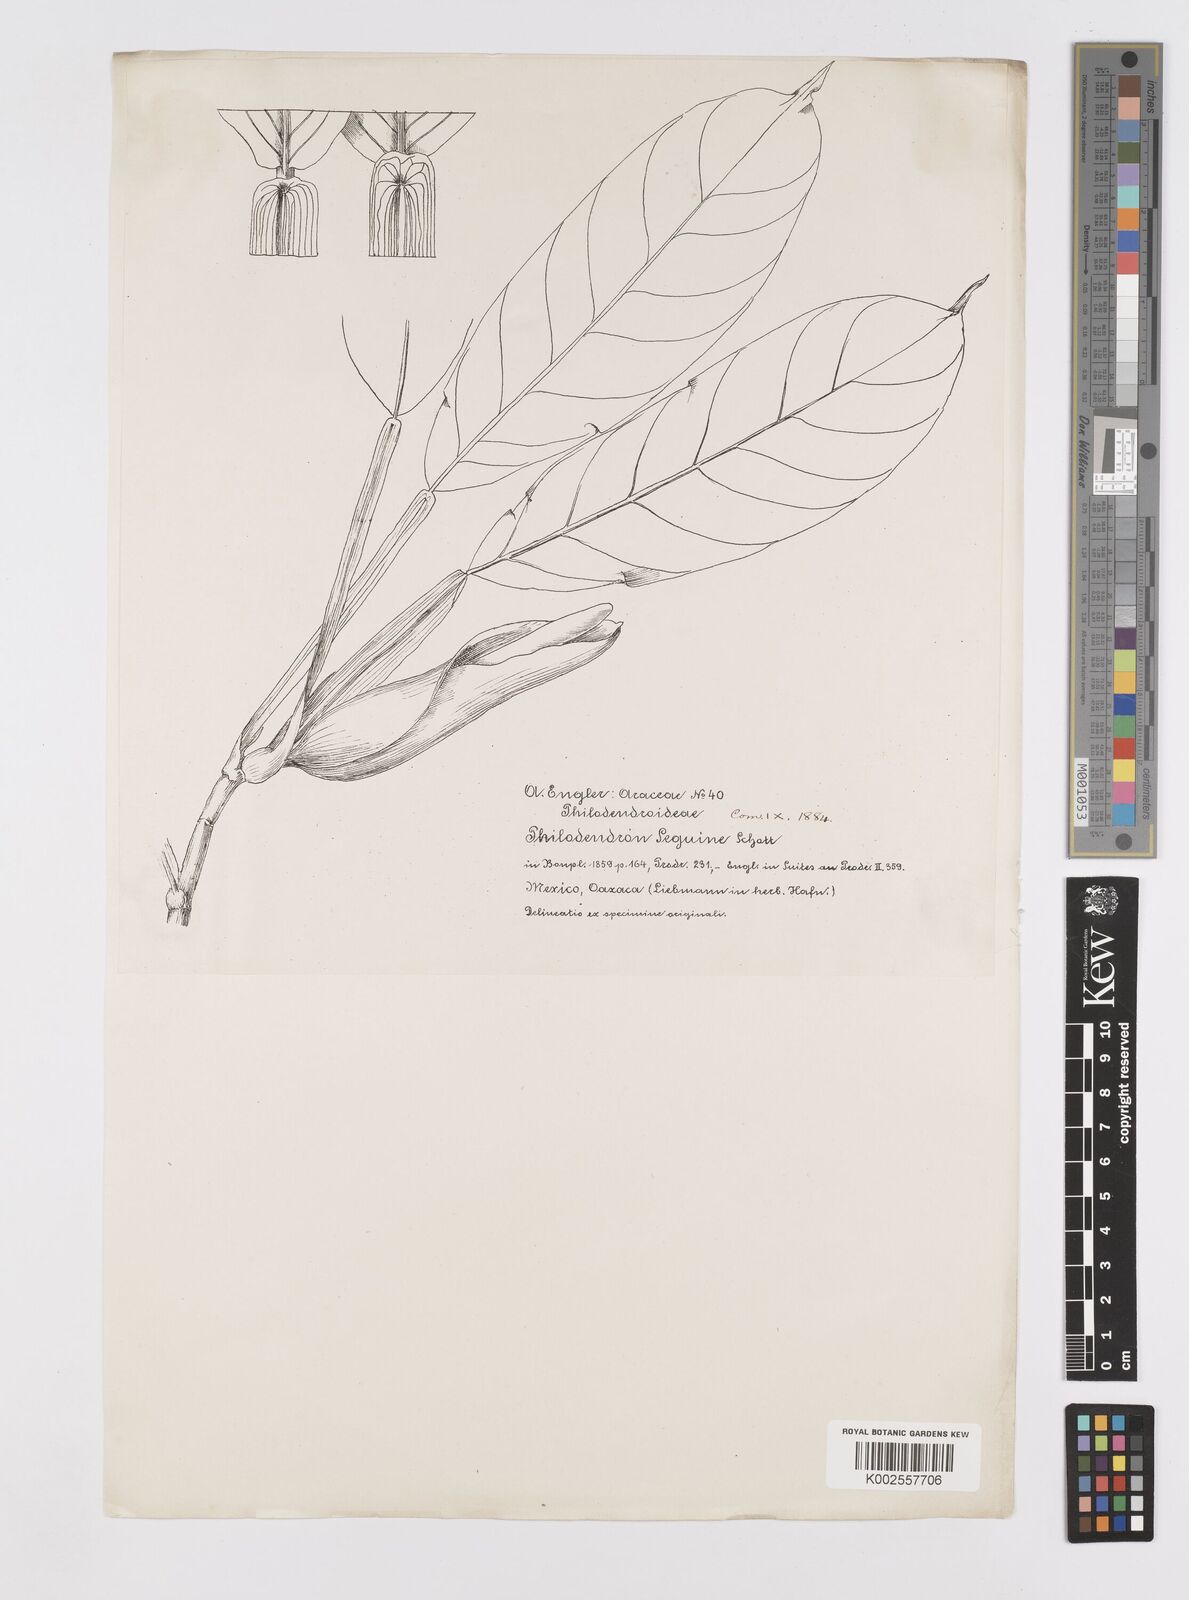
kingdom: Plantae
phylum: Tracheophyta
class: Liliopsida
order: Alismatales
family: Araceae
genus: Philodendron
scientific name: Philodendron seguine
